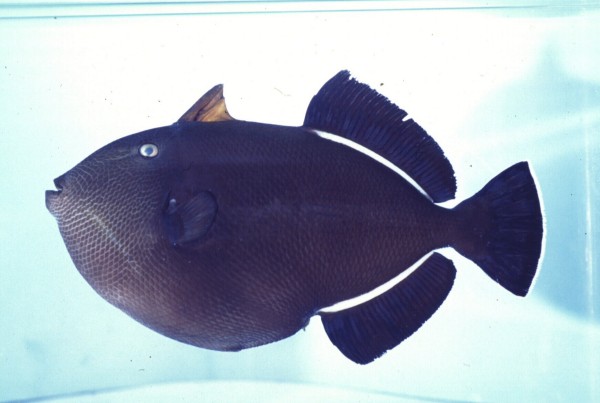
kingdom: Animalia
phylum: Chordata
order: Tetraodontiformes
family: Balistidae
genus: Melichthys
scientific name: Melichthys indicus
